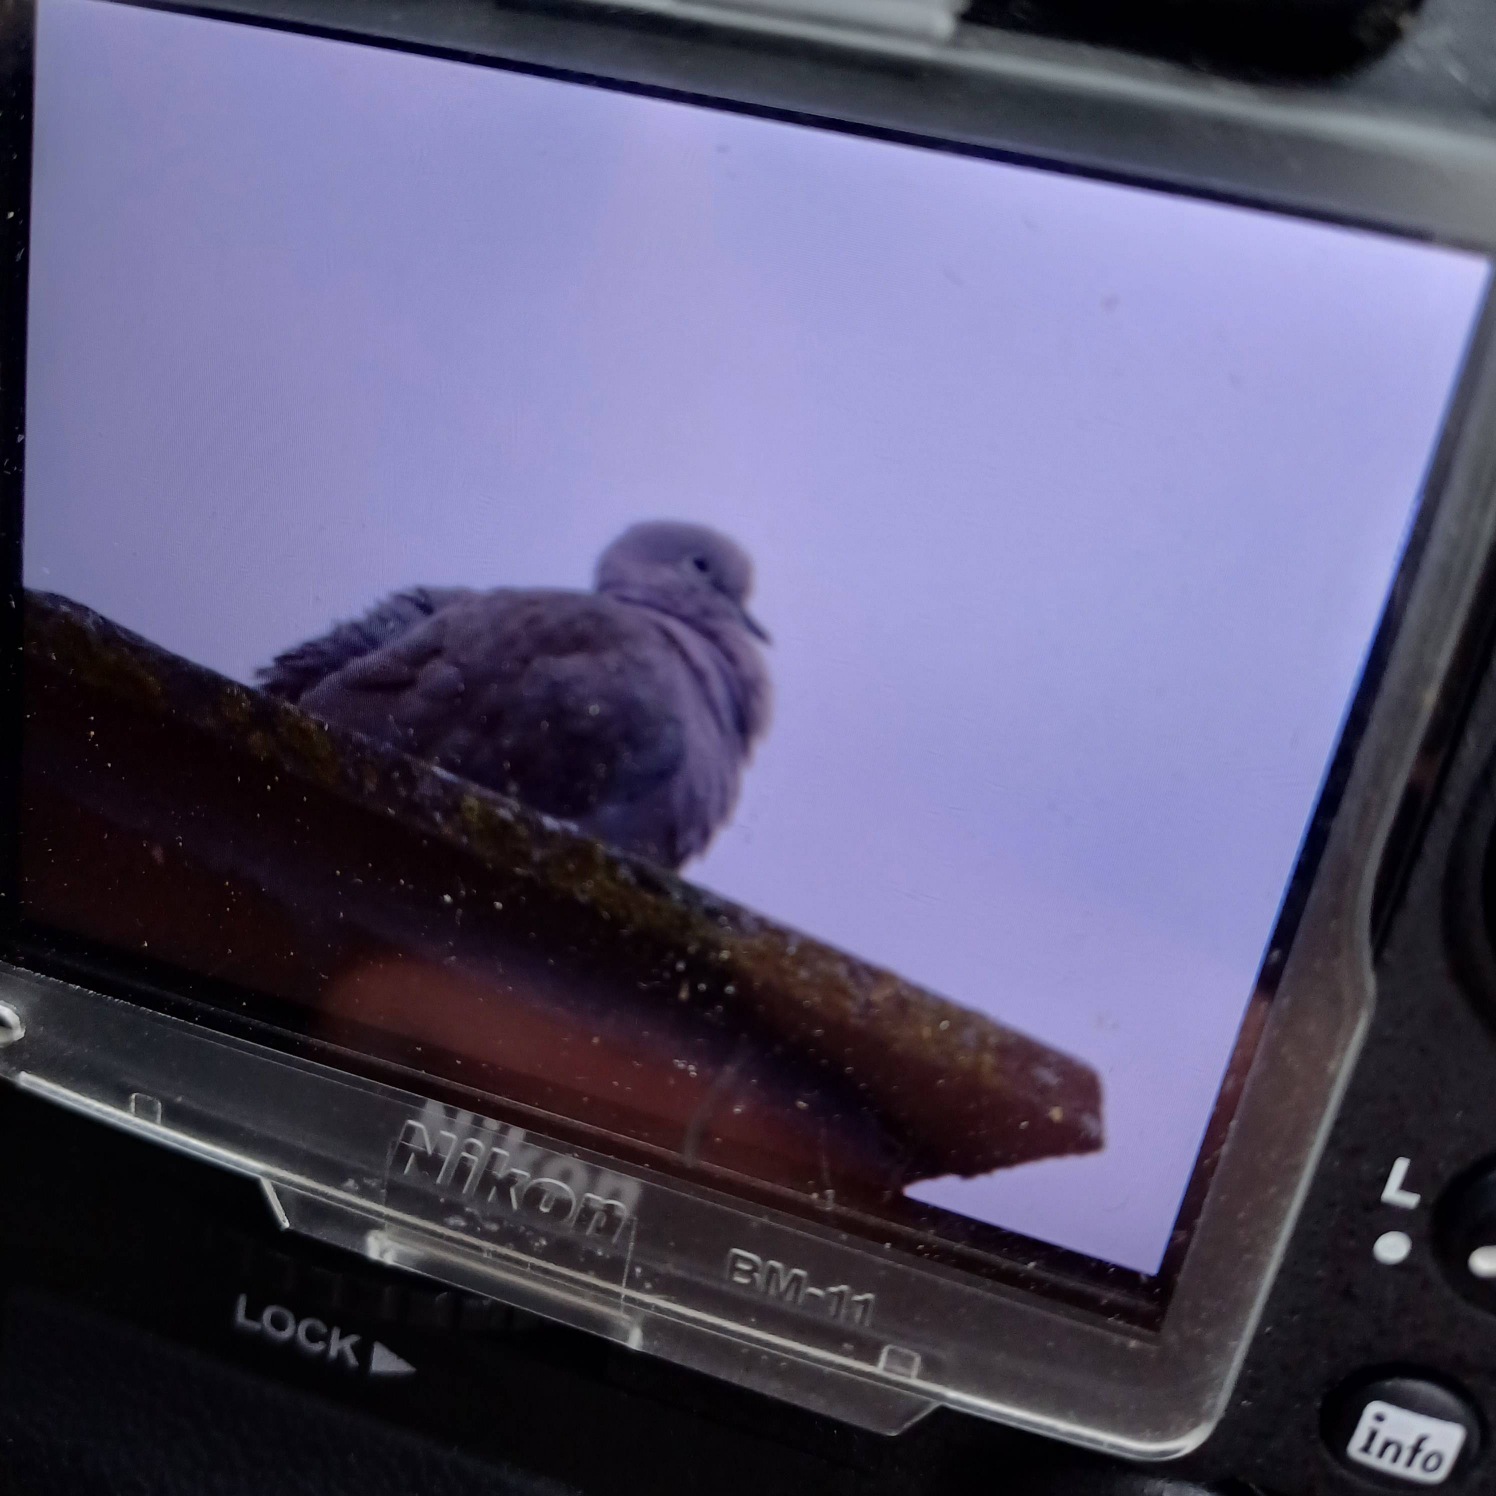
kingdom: Animalia
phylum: Chordata
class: Aves
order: Columbiformes
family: Columbidae
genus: Streptopelia
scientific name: Streptopelia decaocto
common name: Tyrkerdue
